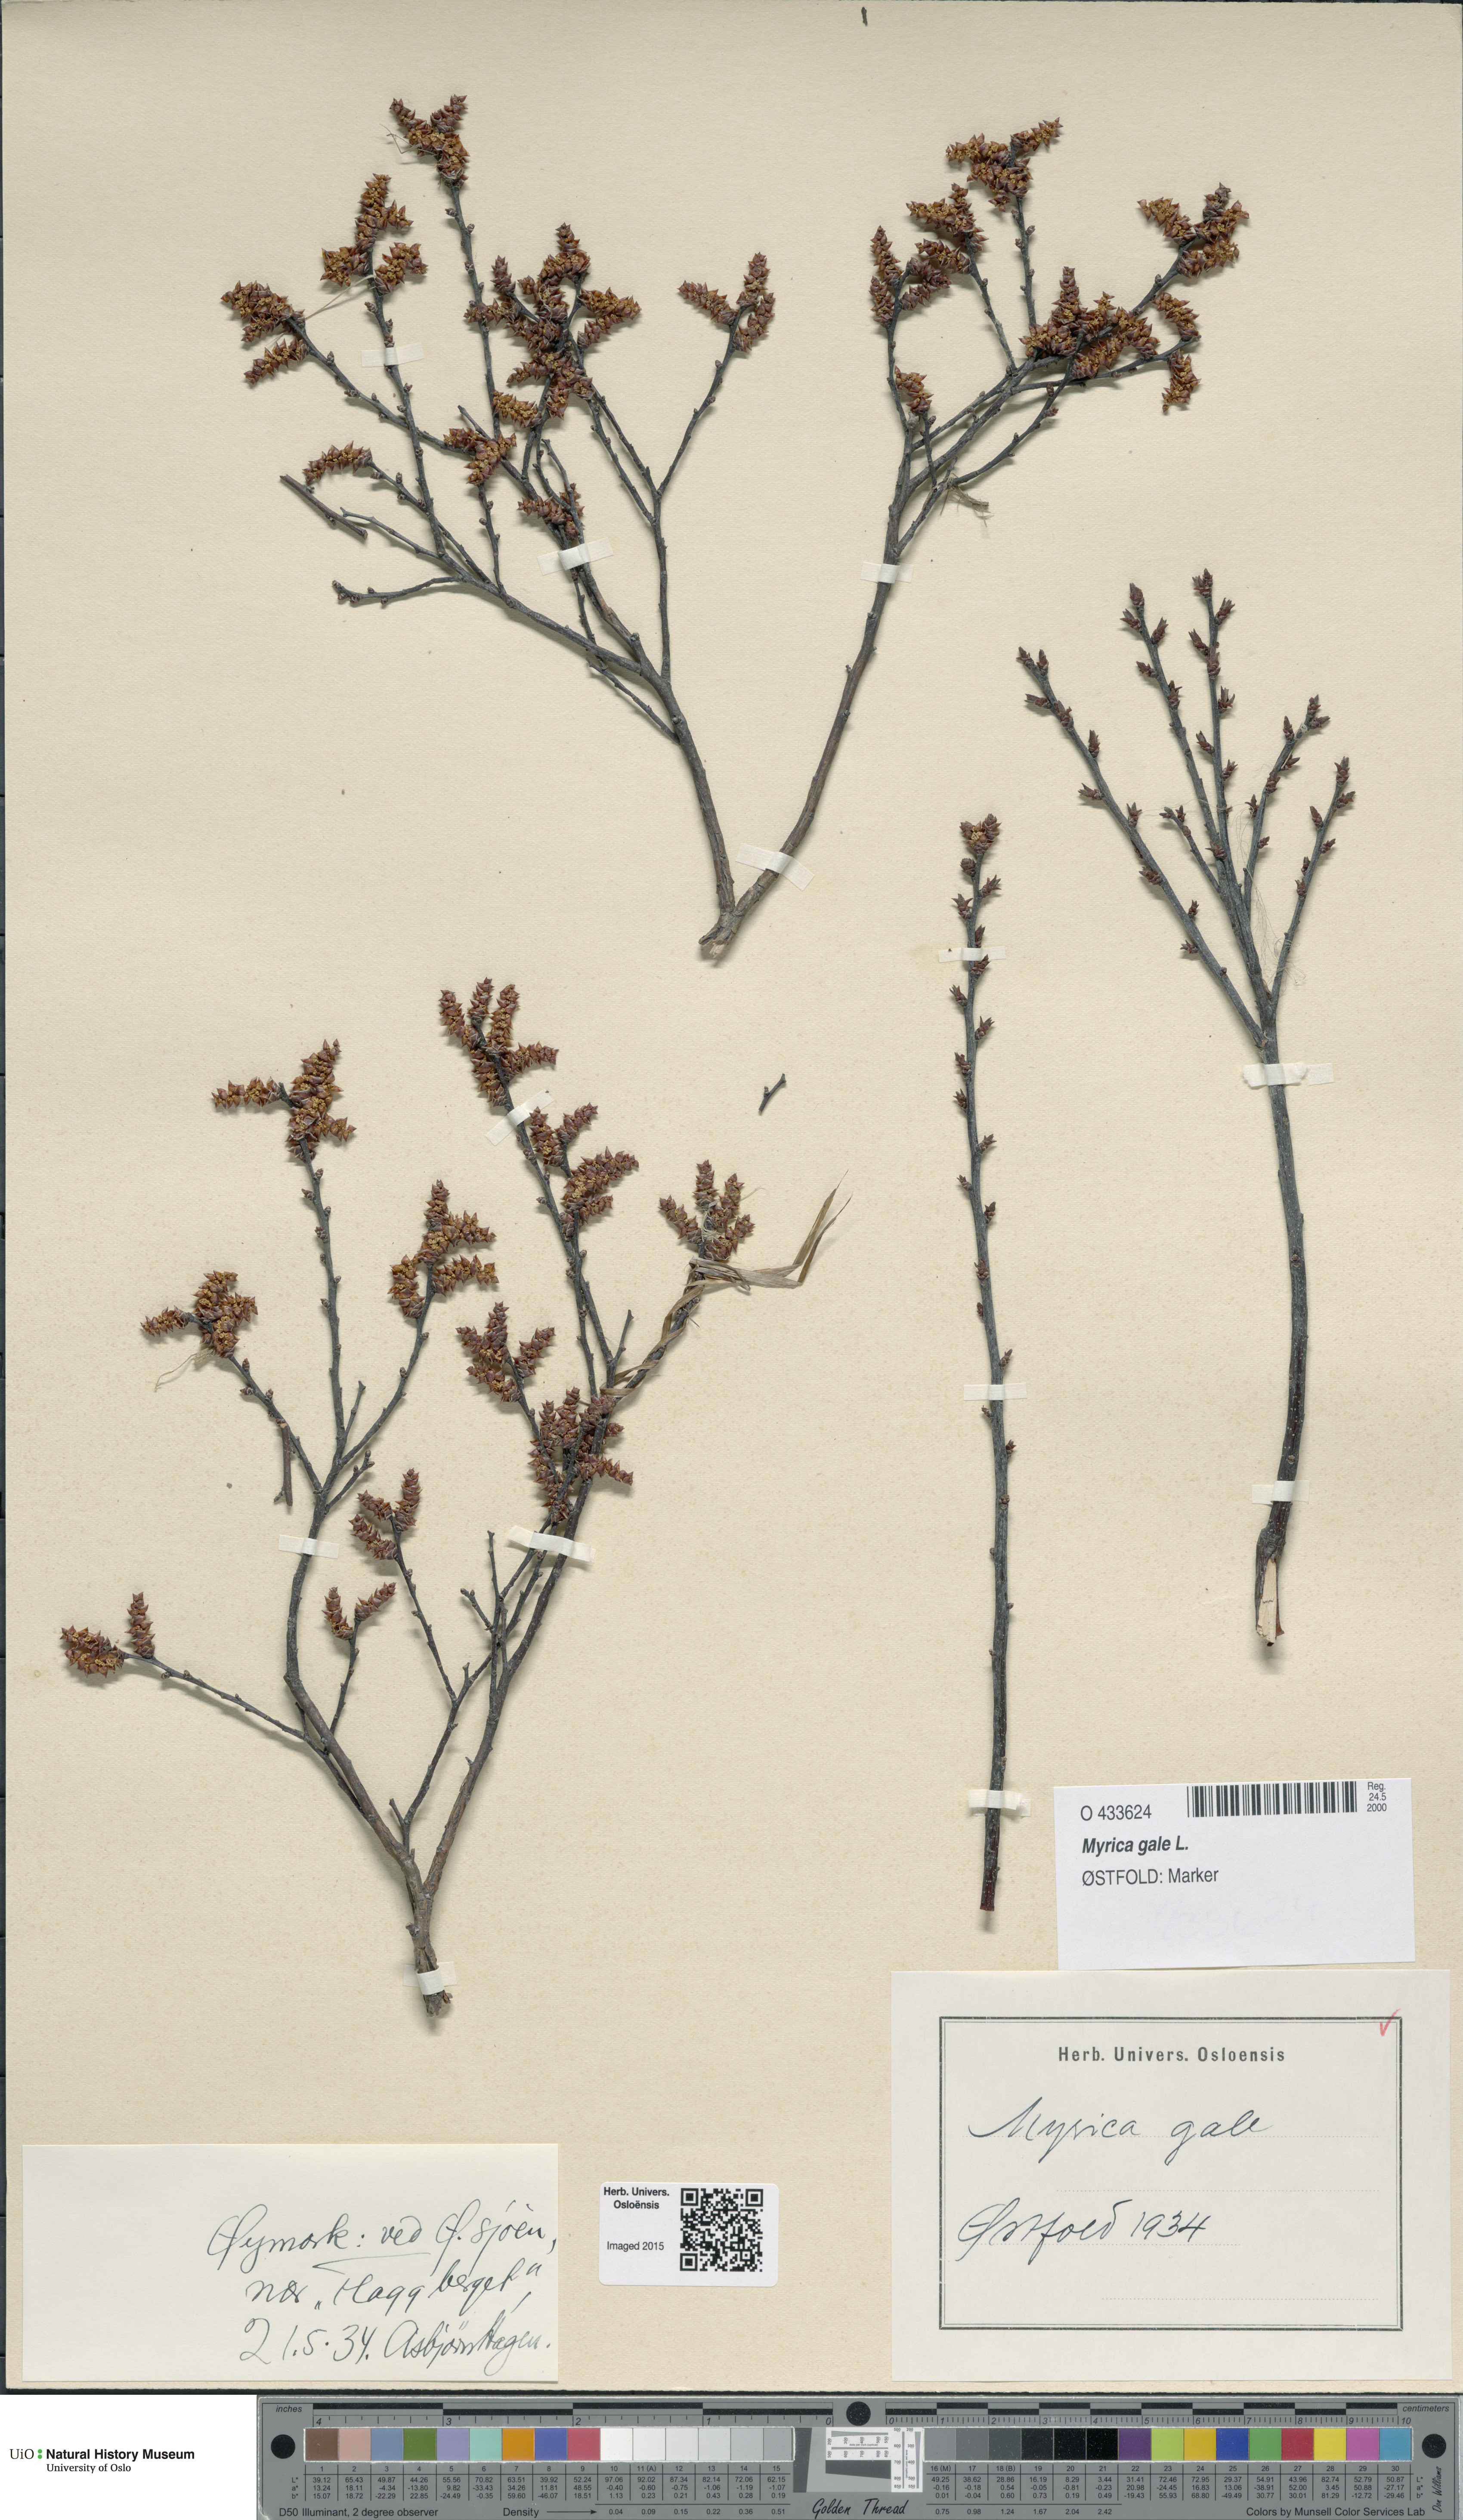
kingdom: Plantae
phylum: Tracheophyta
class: Magnoliopsida
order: Fagales
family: Myricaceae
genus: Myrica
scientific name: Myrica gale
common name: Sweet gale
